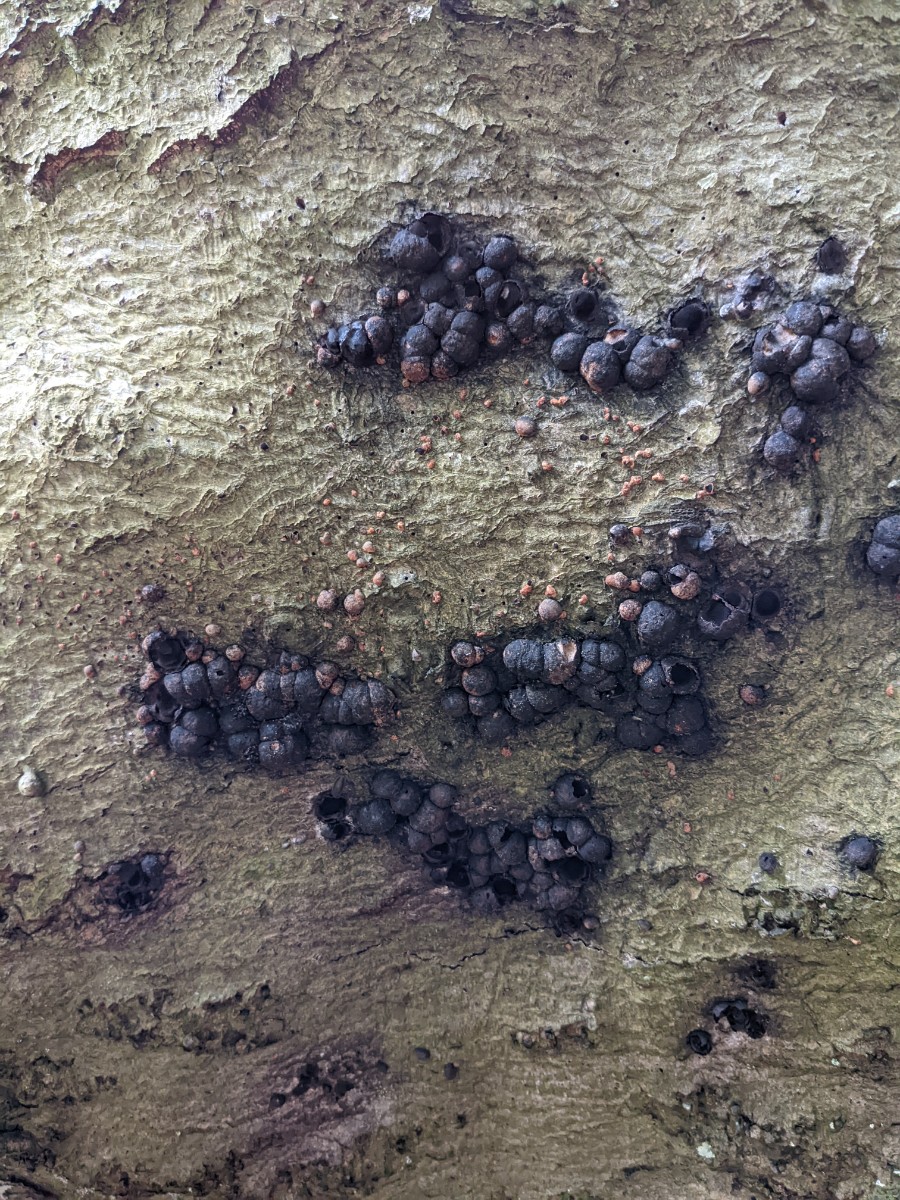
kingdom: Fungi
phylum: Ascomycota
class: Sordariomycetes
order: Xylariales
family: Hypoxylaceae
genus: Jackrogersella
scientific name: Jackrogersella cohaerens
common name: sammenflydende kulbær
